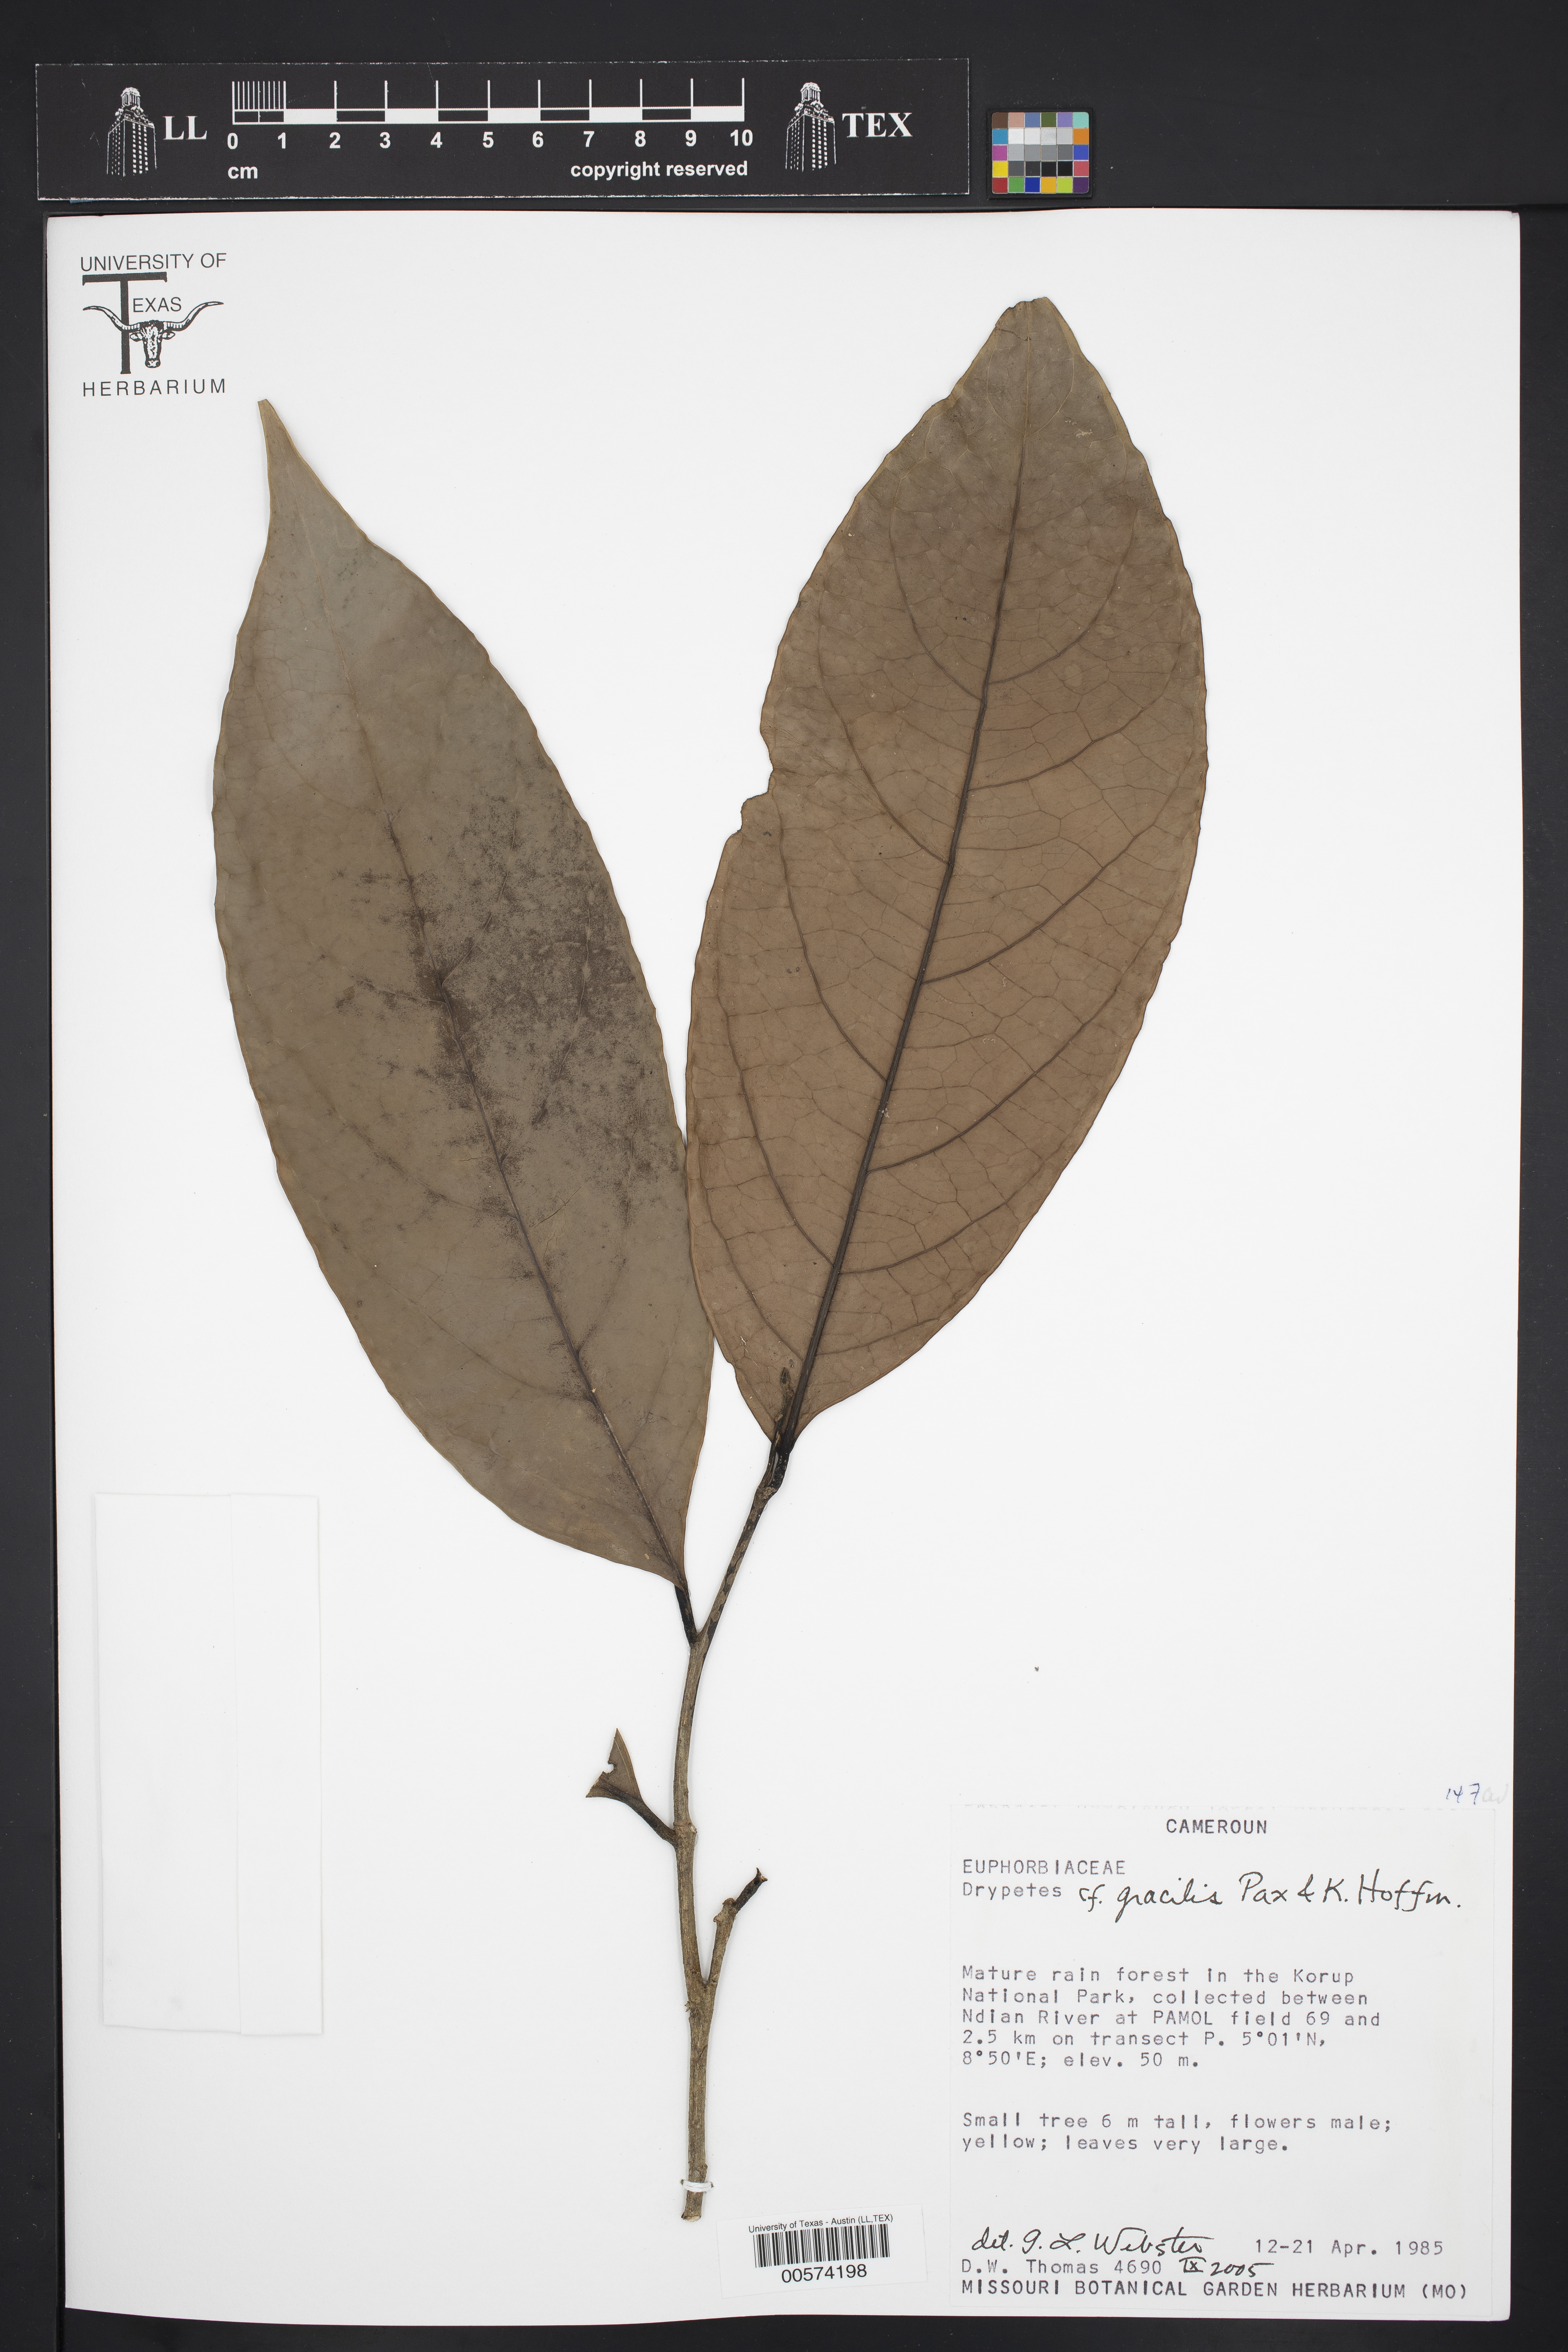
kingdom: Plantae
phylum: Tracheophyta
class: Magnoliopsida
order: Malpighiales
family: Putranjivaceae
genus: Drypetes
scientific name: Drypetes gracilis
